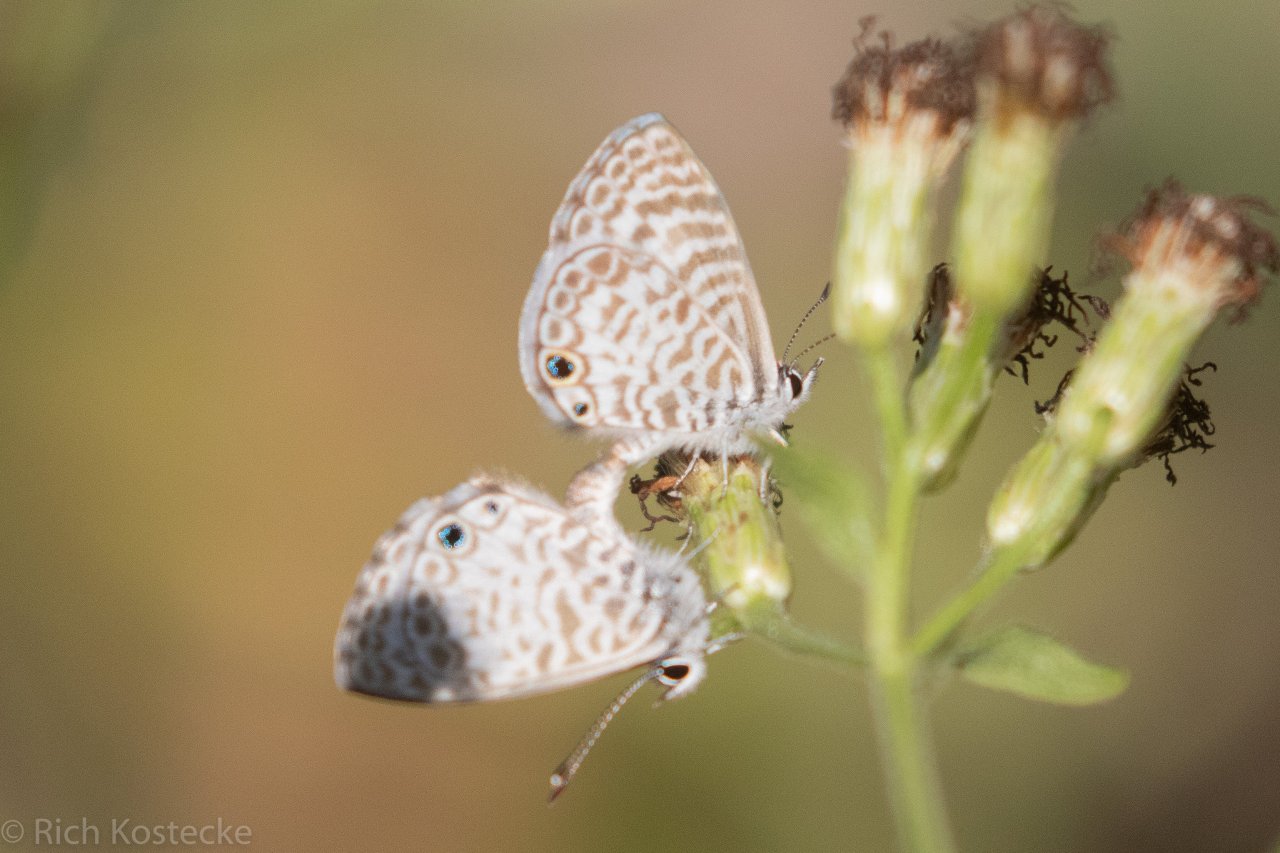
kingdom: Animalia
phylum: Arthropoda
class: Insecta
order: Lepidoptera
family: Lycaenidae
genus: Leptotes
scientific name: Leptotes cassius
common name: Cassius Blue
